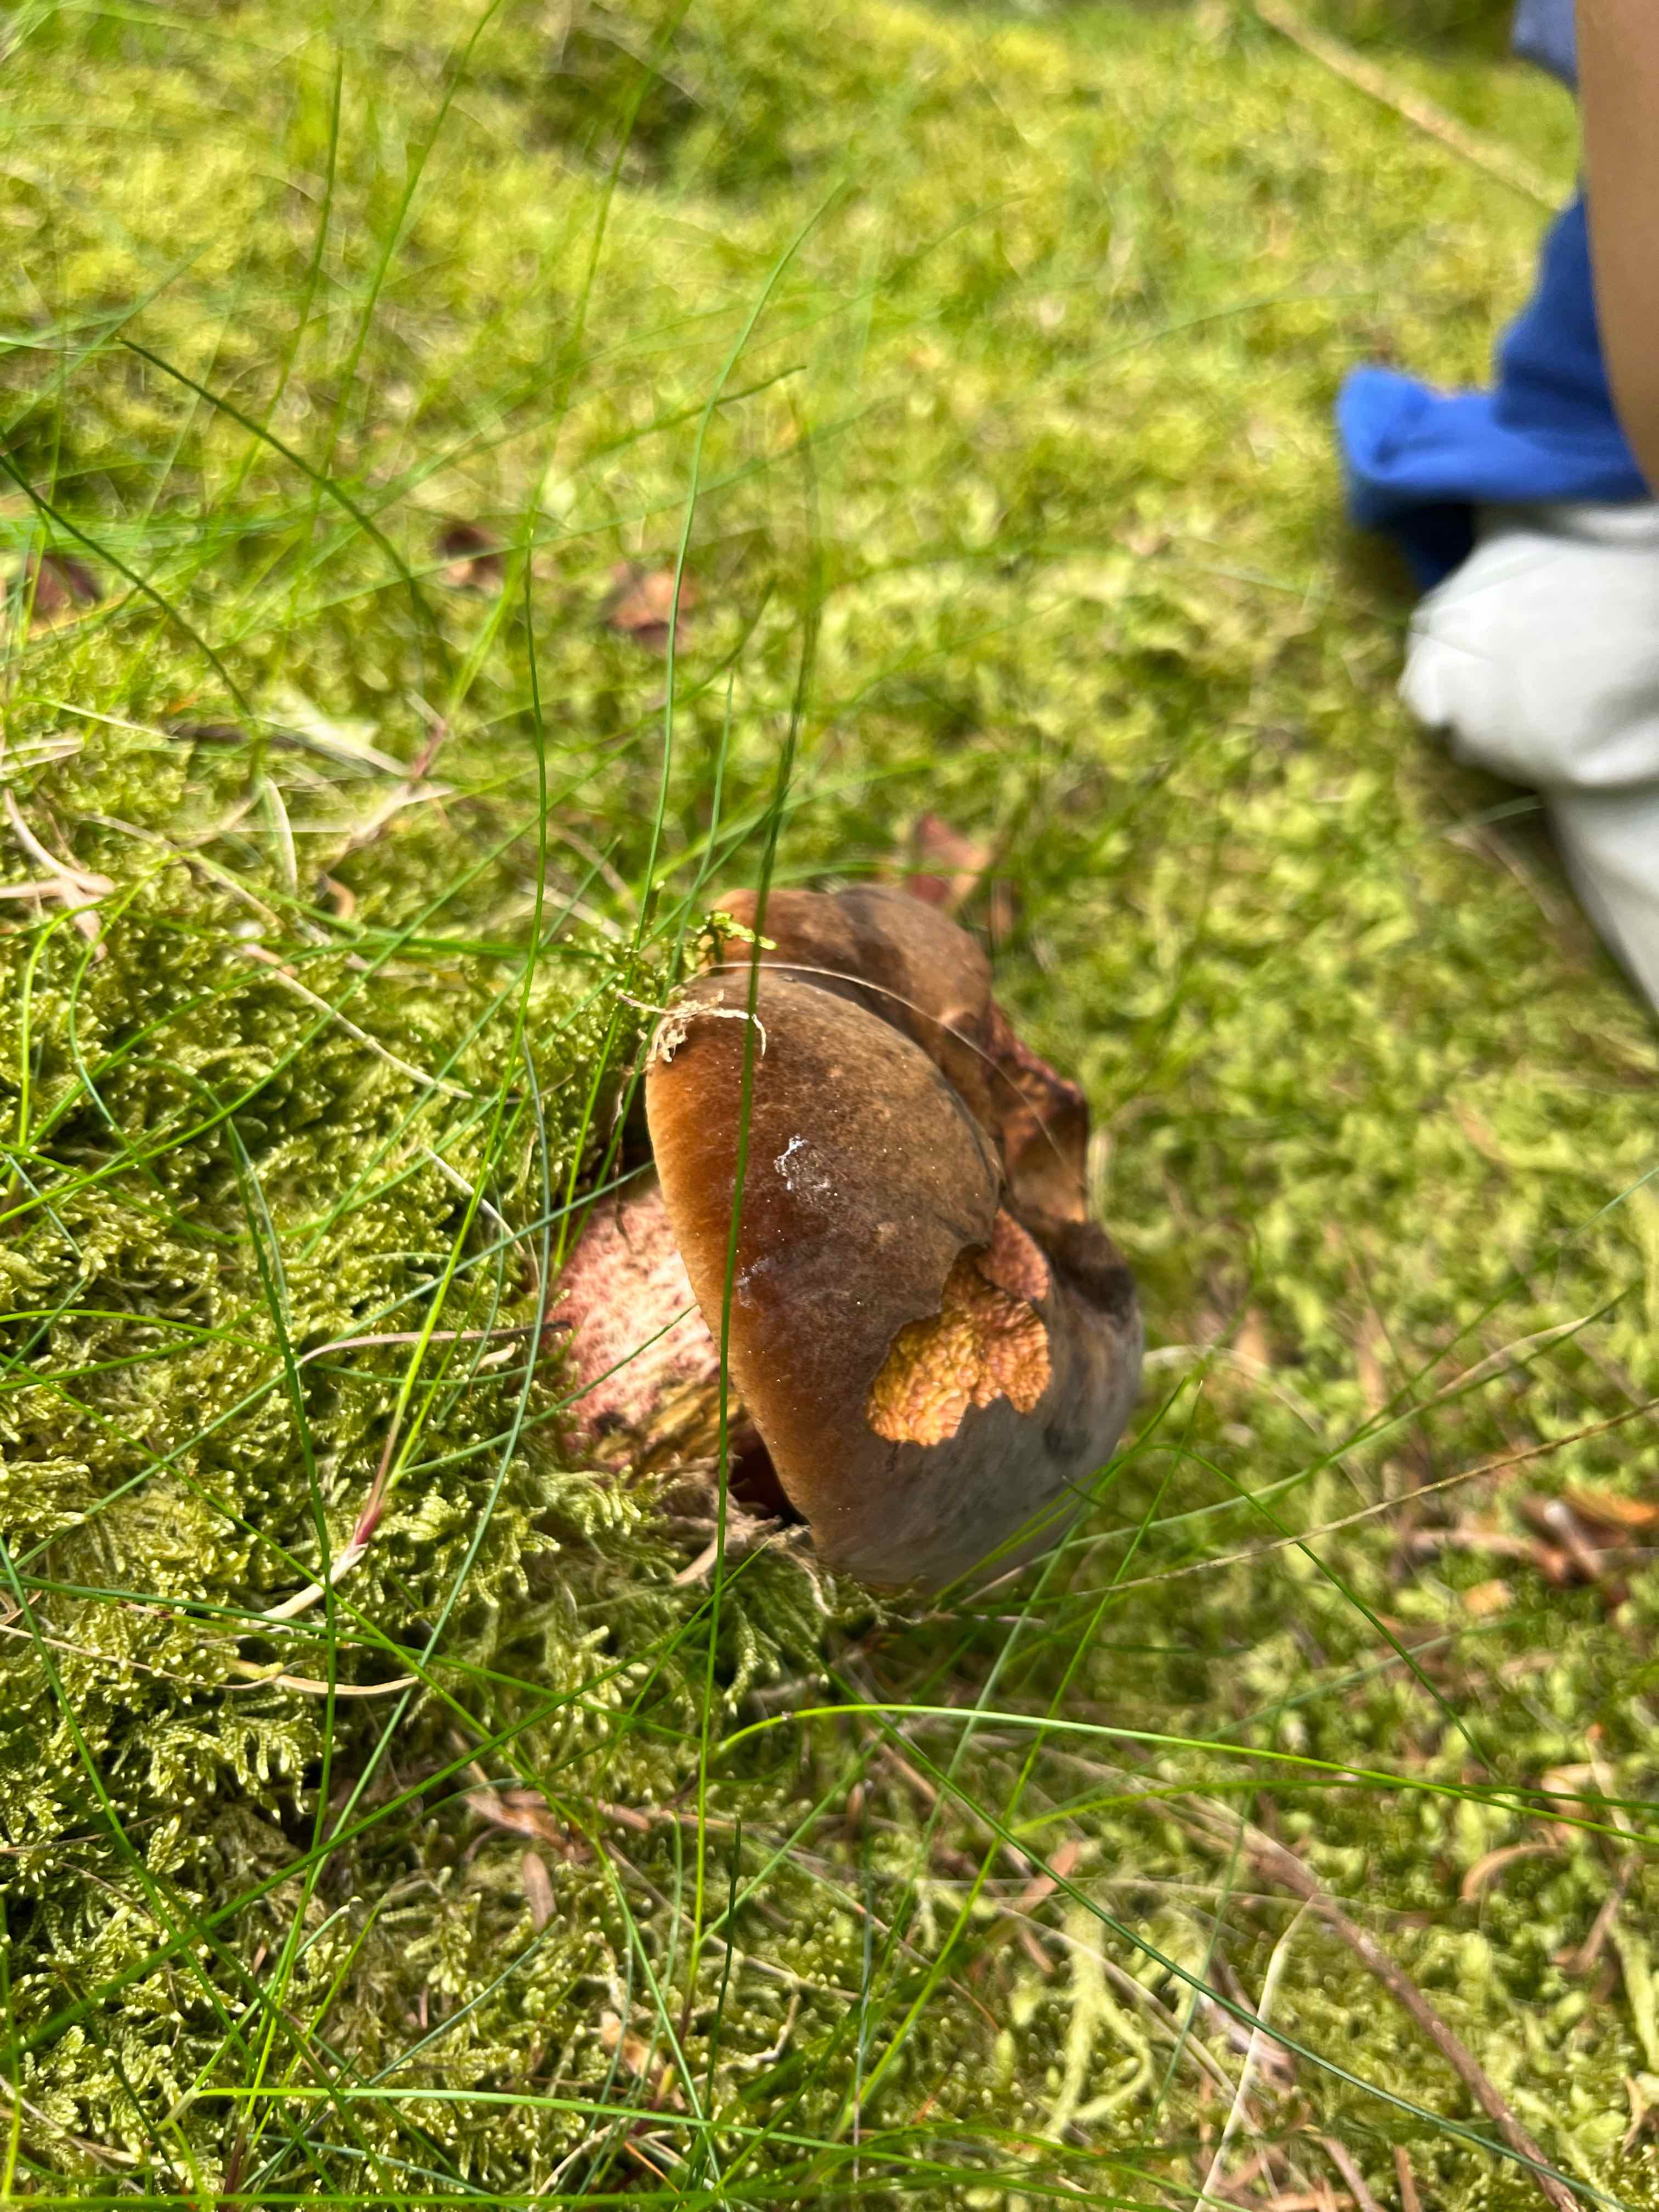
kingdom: Fungi
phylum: Basidiomycota
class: Agaricomycetes
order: Boletales
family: Boletaceae
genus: Neoboletus
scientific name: Neoboletus erythropus
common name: punktstokket indigorørhat
